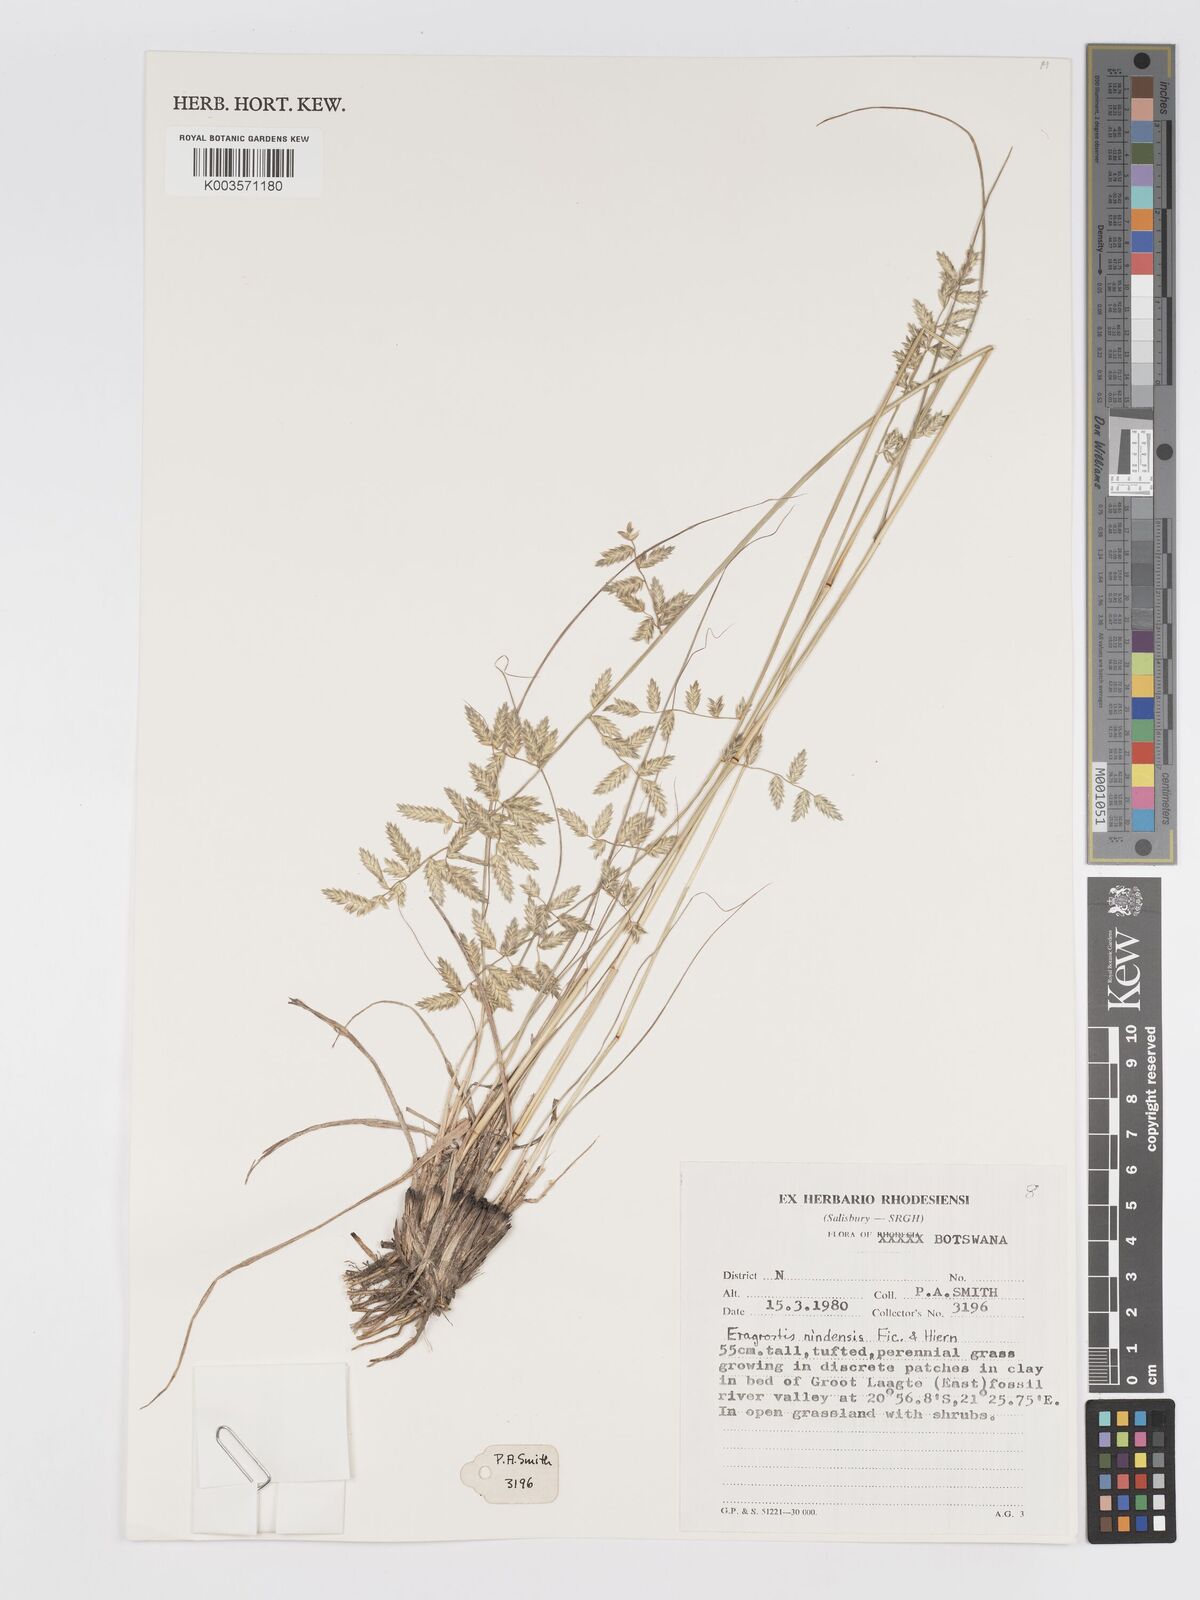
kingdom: Plantae
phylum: Tracheophyta
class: Liliopsida
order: Poales
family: Poaceae
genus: Eragrostis
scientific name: Eragrostis nindensis
